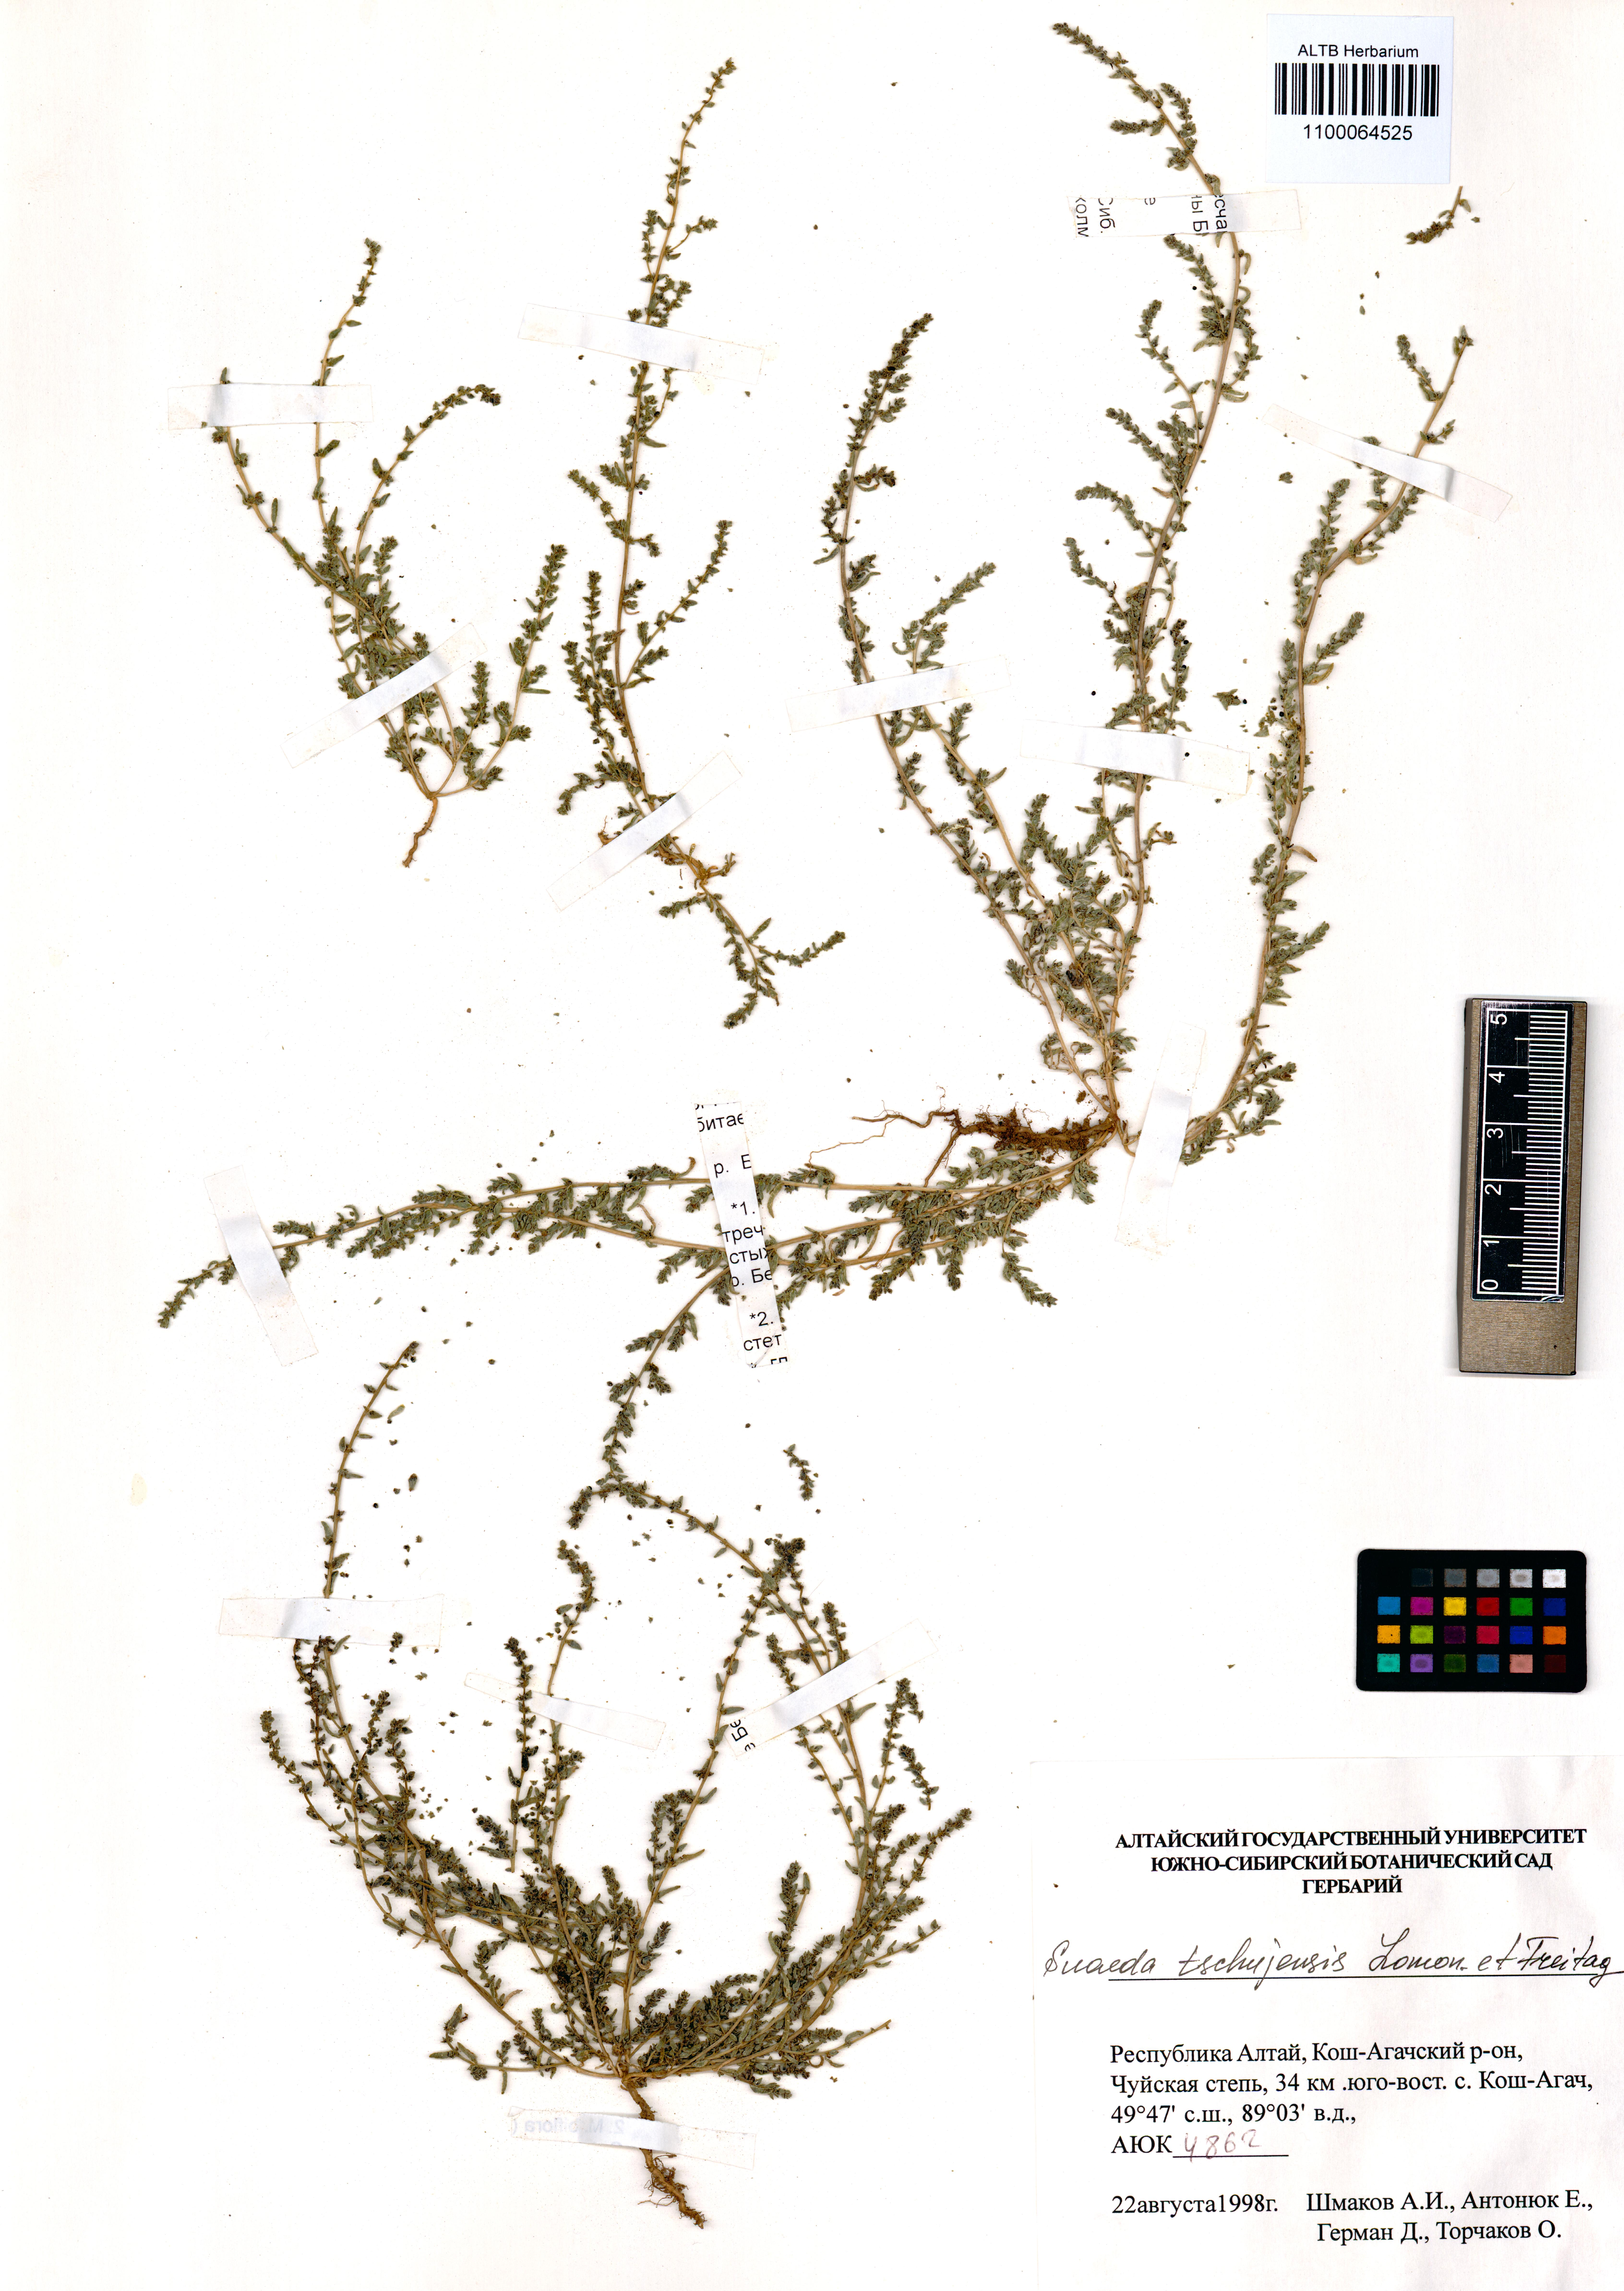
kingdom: Plantae
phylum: Tracheophyta
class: Magnoliopsida
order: Caryophyllales
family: Amaranthaceae
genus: Suaeda
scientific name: Suaeda tschujensis
